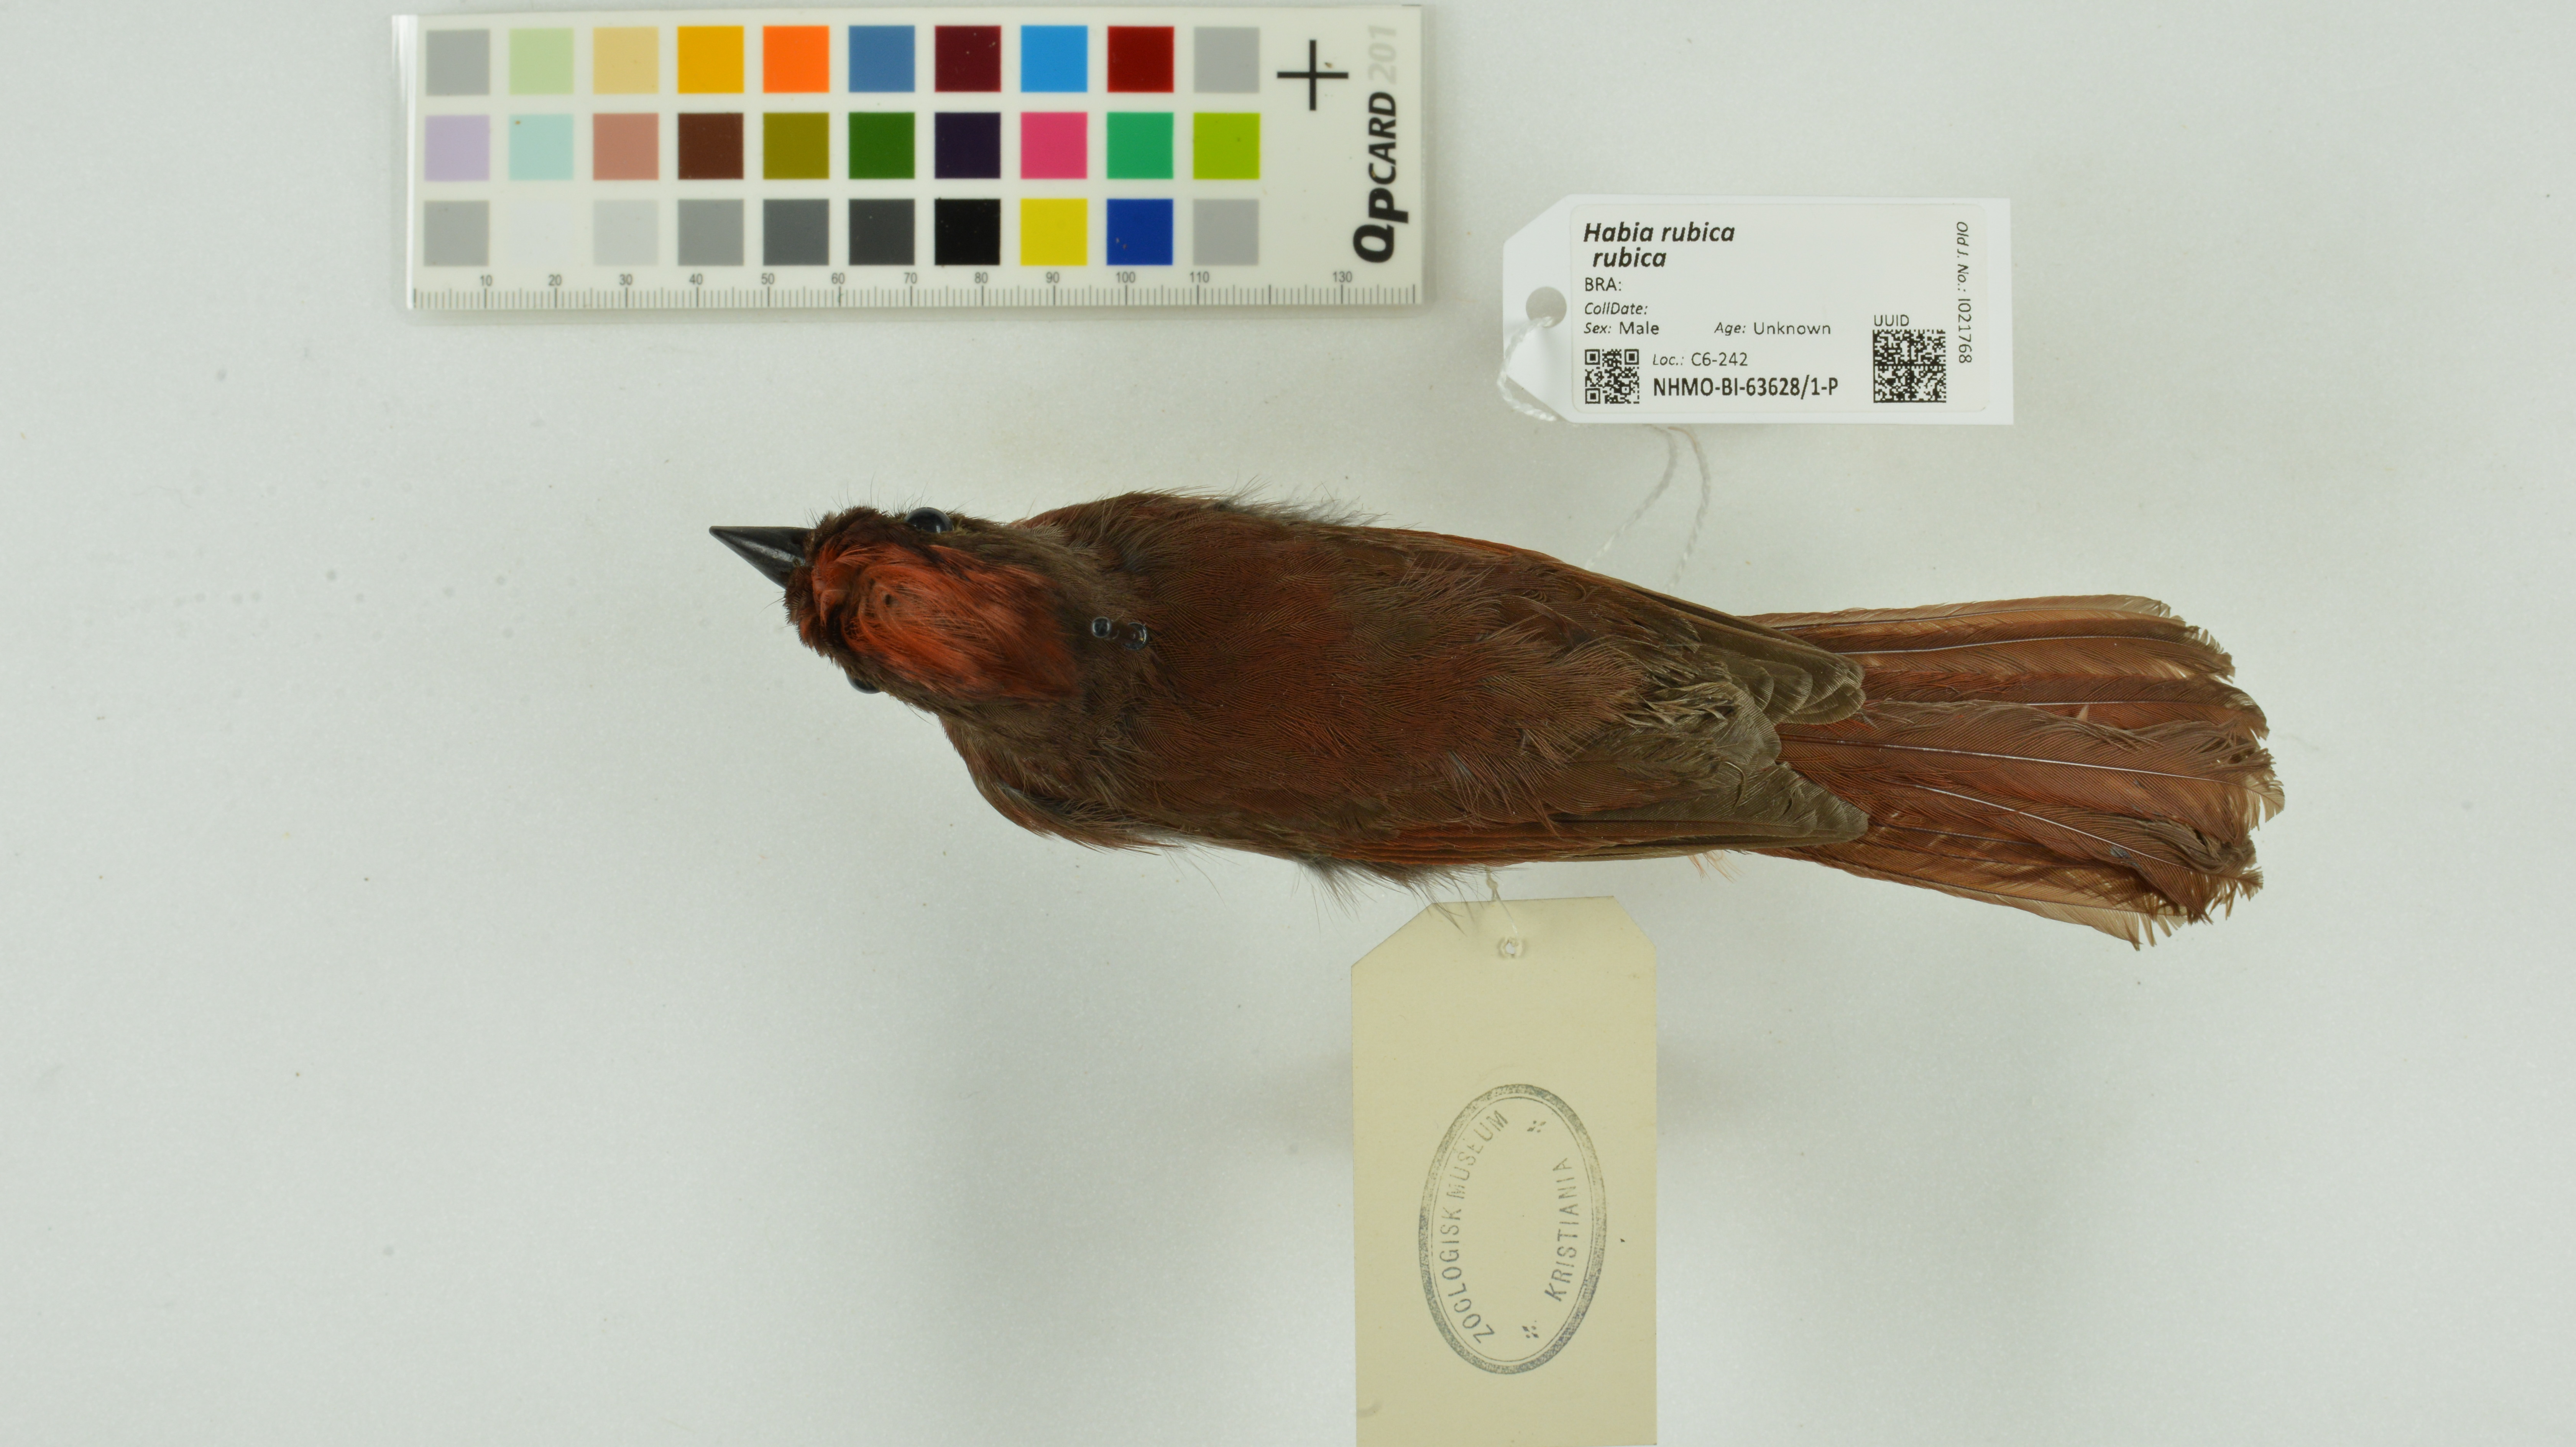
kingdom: Animalia
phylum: Chordata
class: Aves
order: Passeriformes
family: Cardinalidae
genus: Habia
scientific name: Habia rubica
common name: Red-crowned ant-tanager
